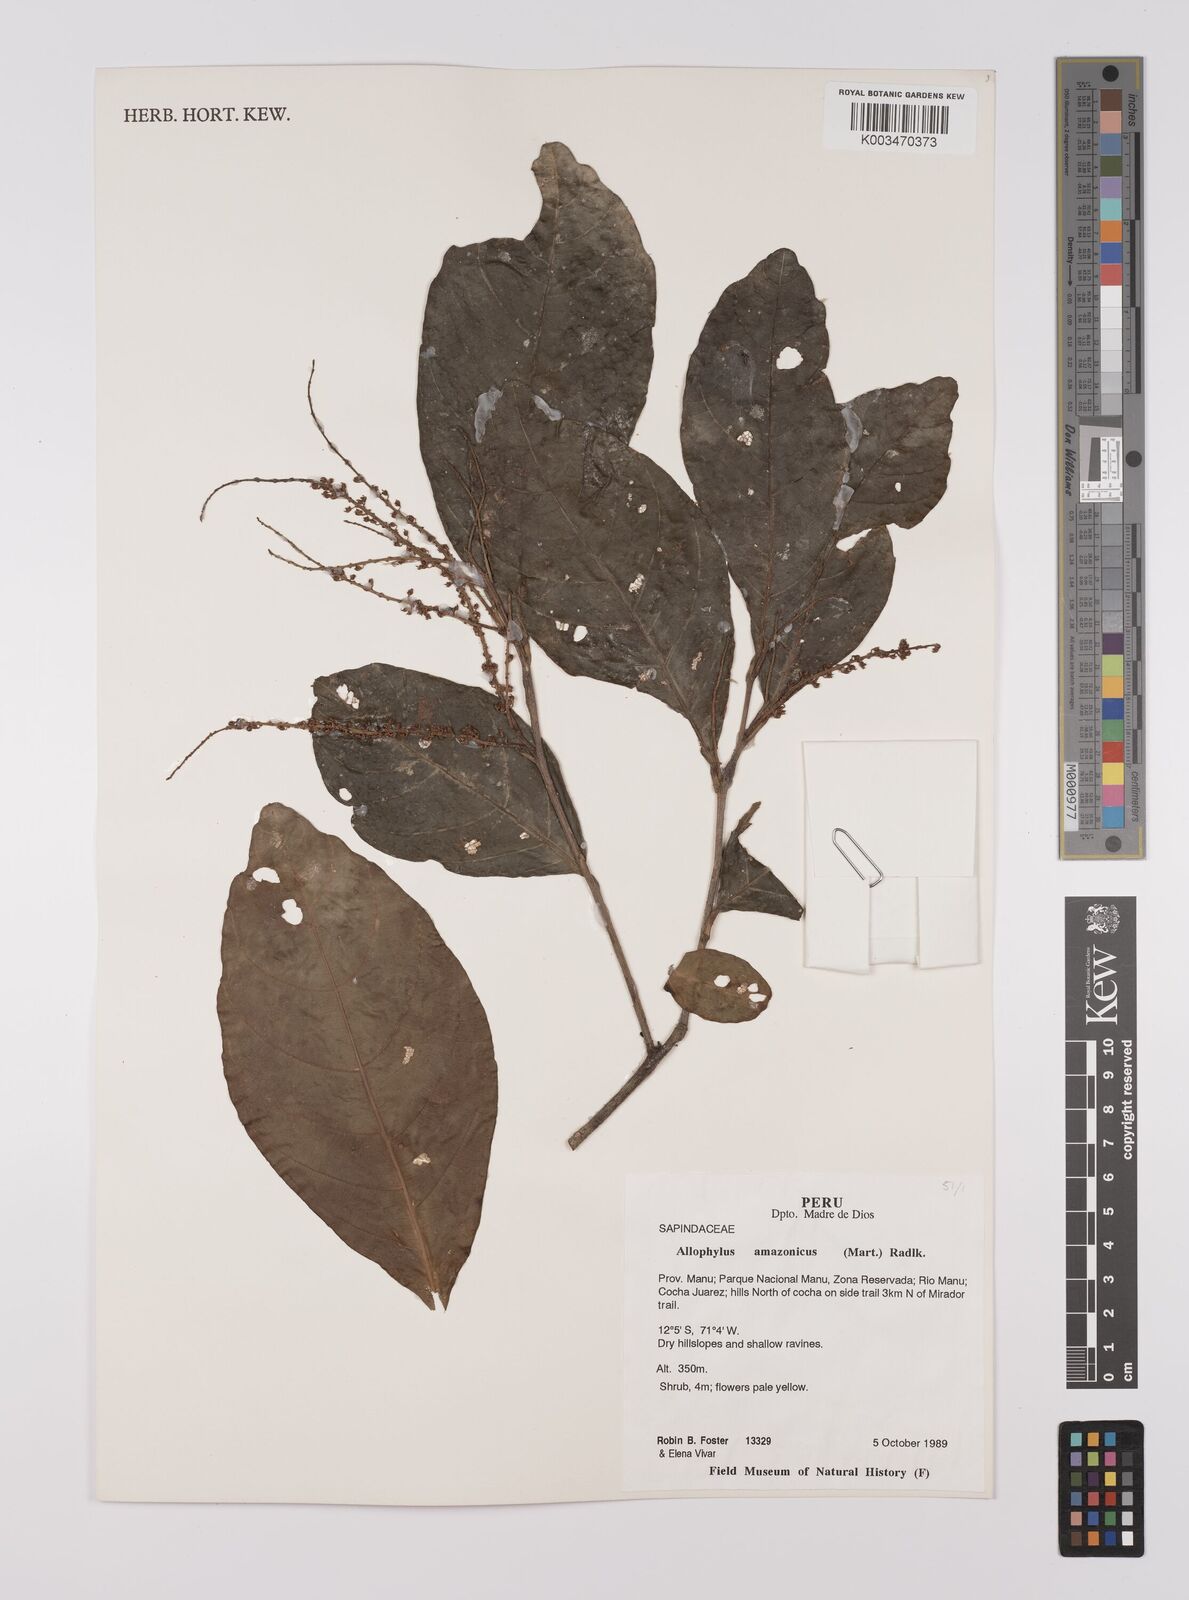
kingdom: Plantae
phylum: Tracheophyta
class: Magnoliopsida
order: Sapindales
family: Sapindaceae
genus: Allophylus
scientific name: Allophylus amazonicus
